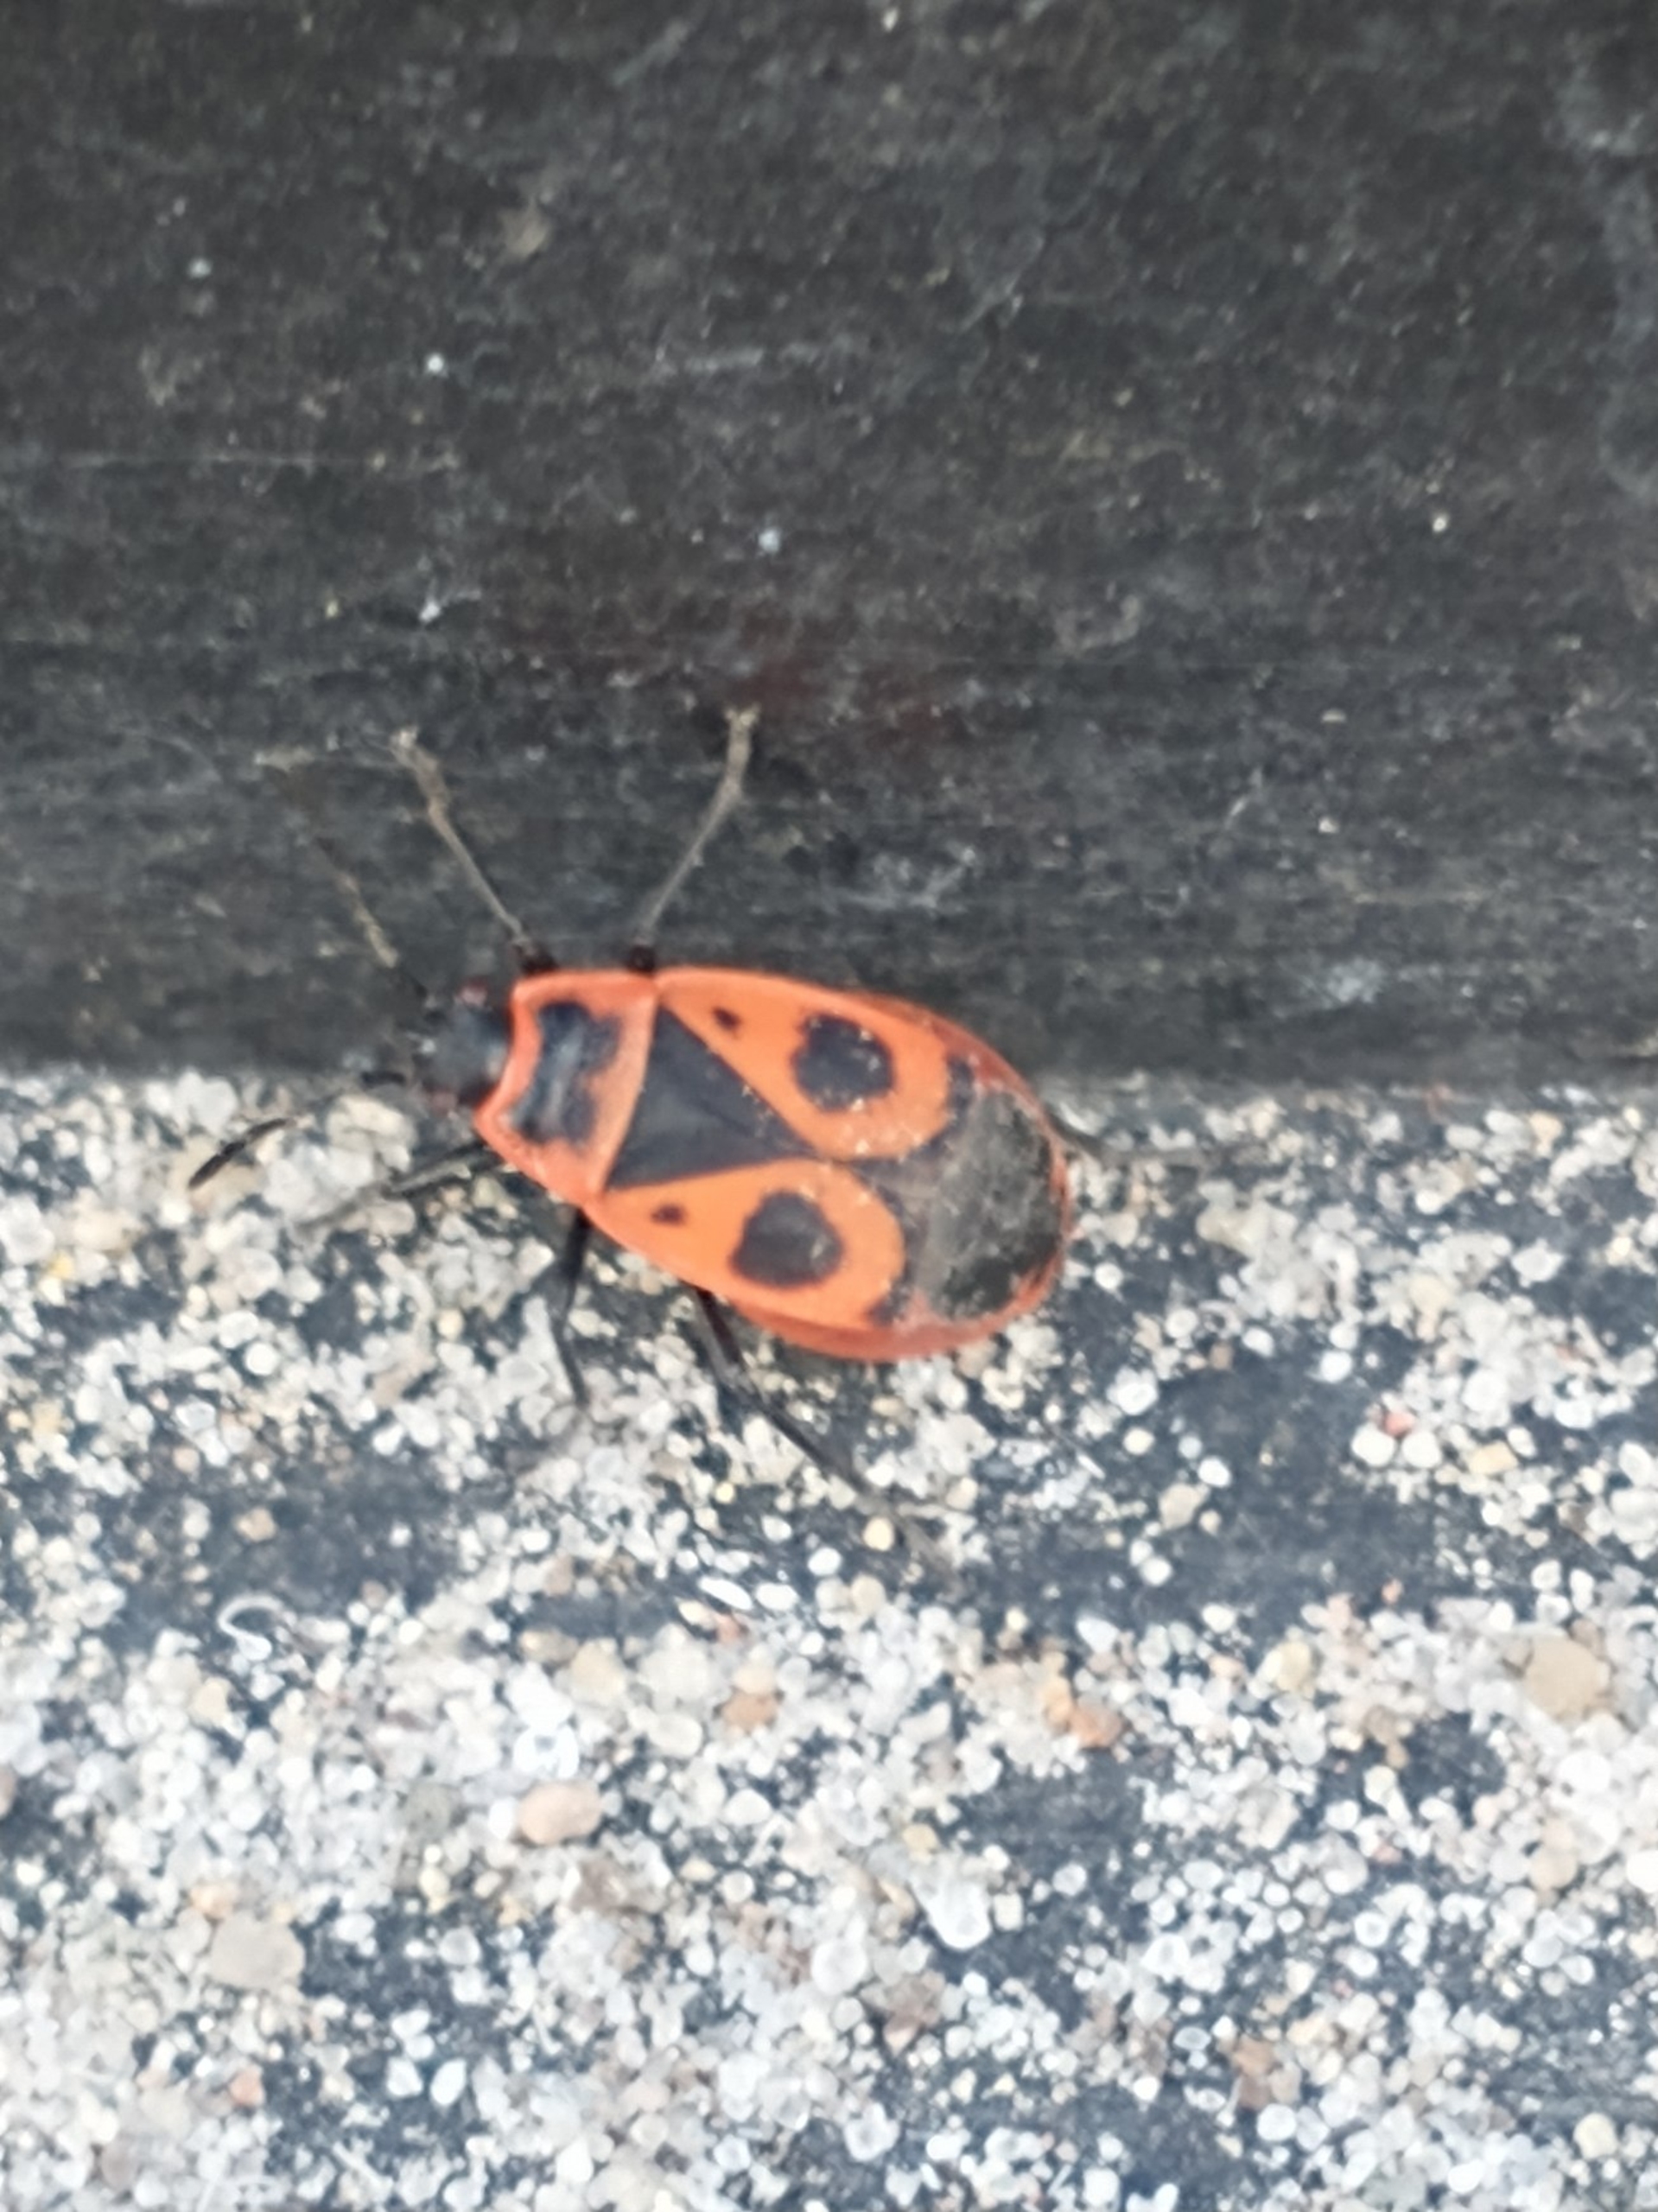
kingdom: Animalia
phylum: Arthropoda
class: Insecta
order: Hemiptera
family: Pyrrhocoridae
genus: Pyrrhocoris
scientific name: Pyrrhocoris apterus
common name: Ildtæge
